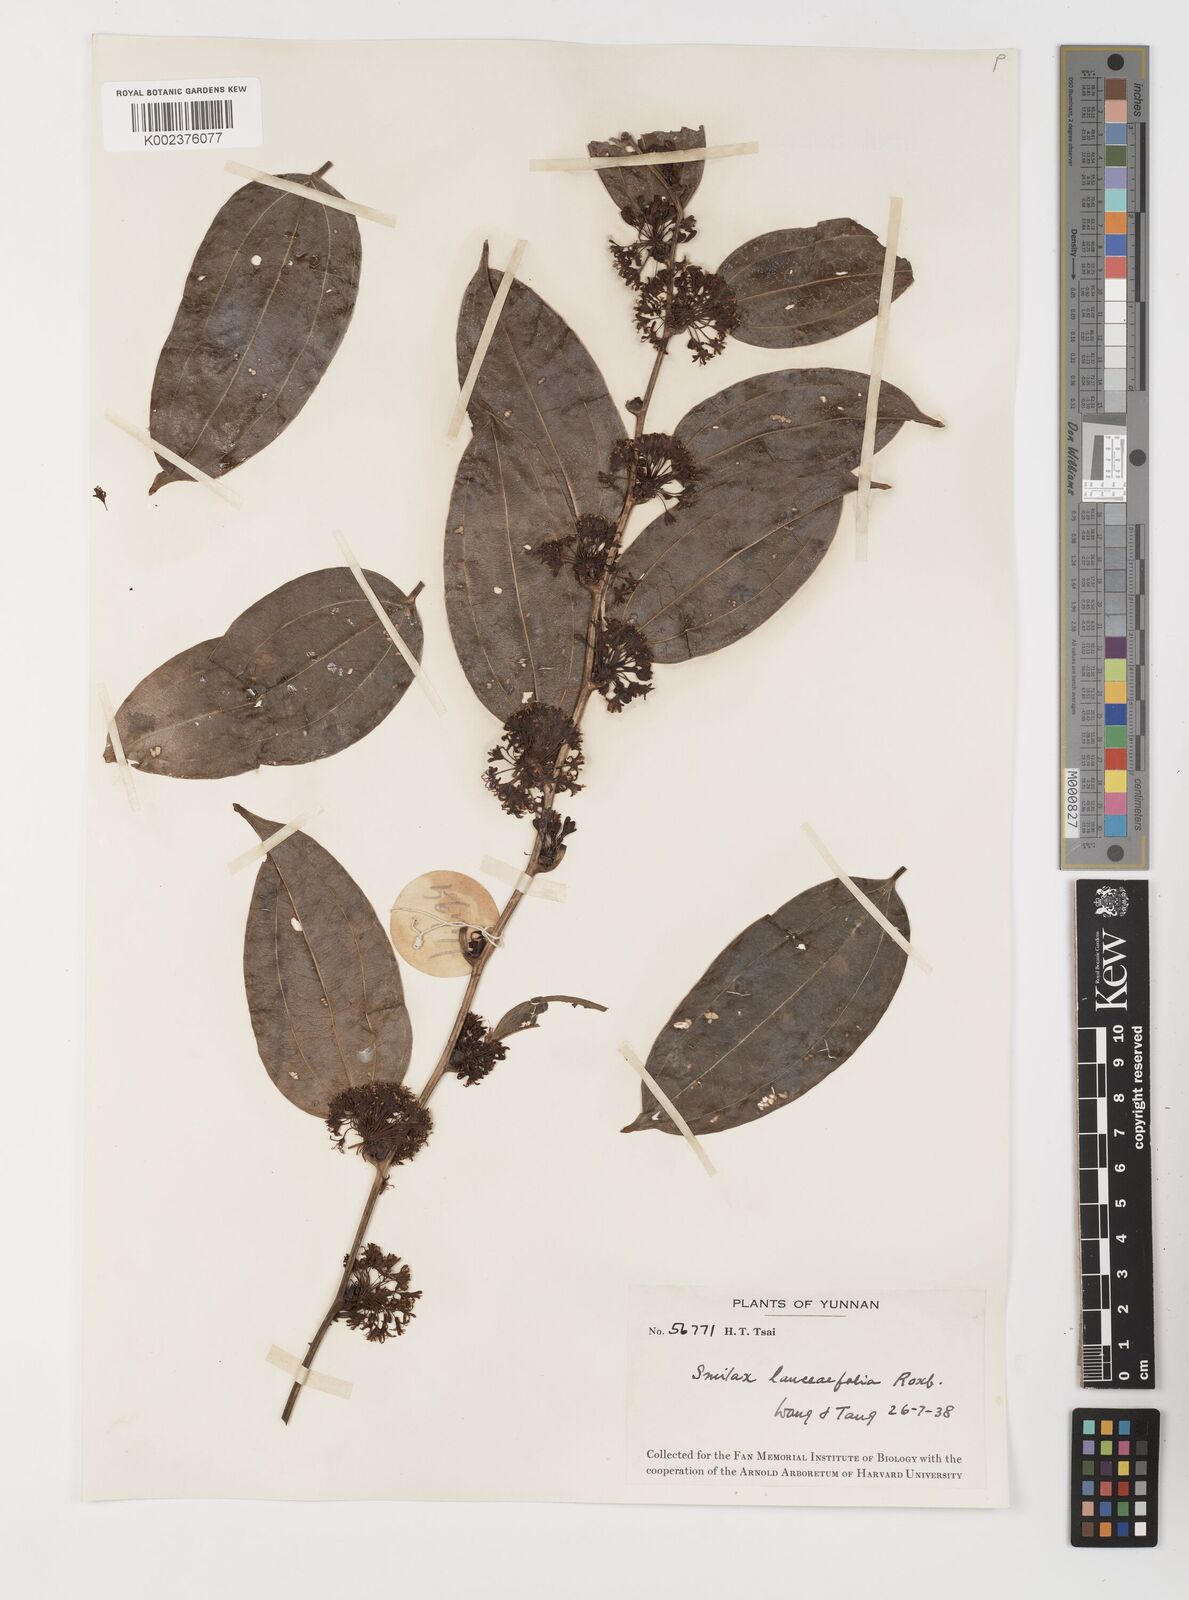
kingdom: Plantae
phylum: Tracheophyta
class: Liliopsida
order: Liliales
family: Smilacaceae
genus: Smilax
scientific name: Smilax lanceifolia
